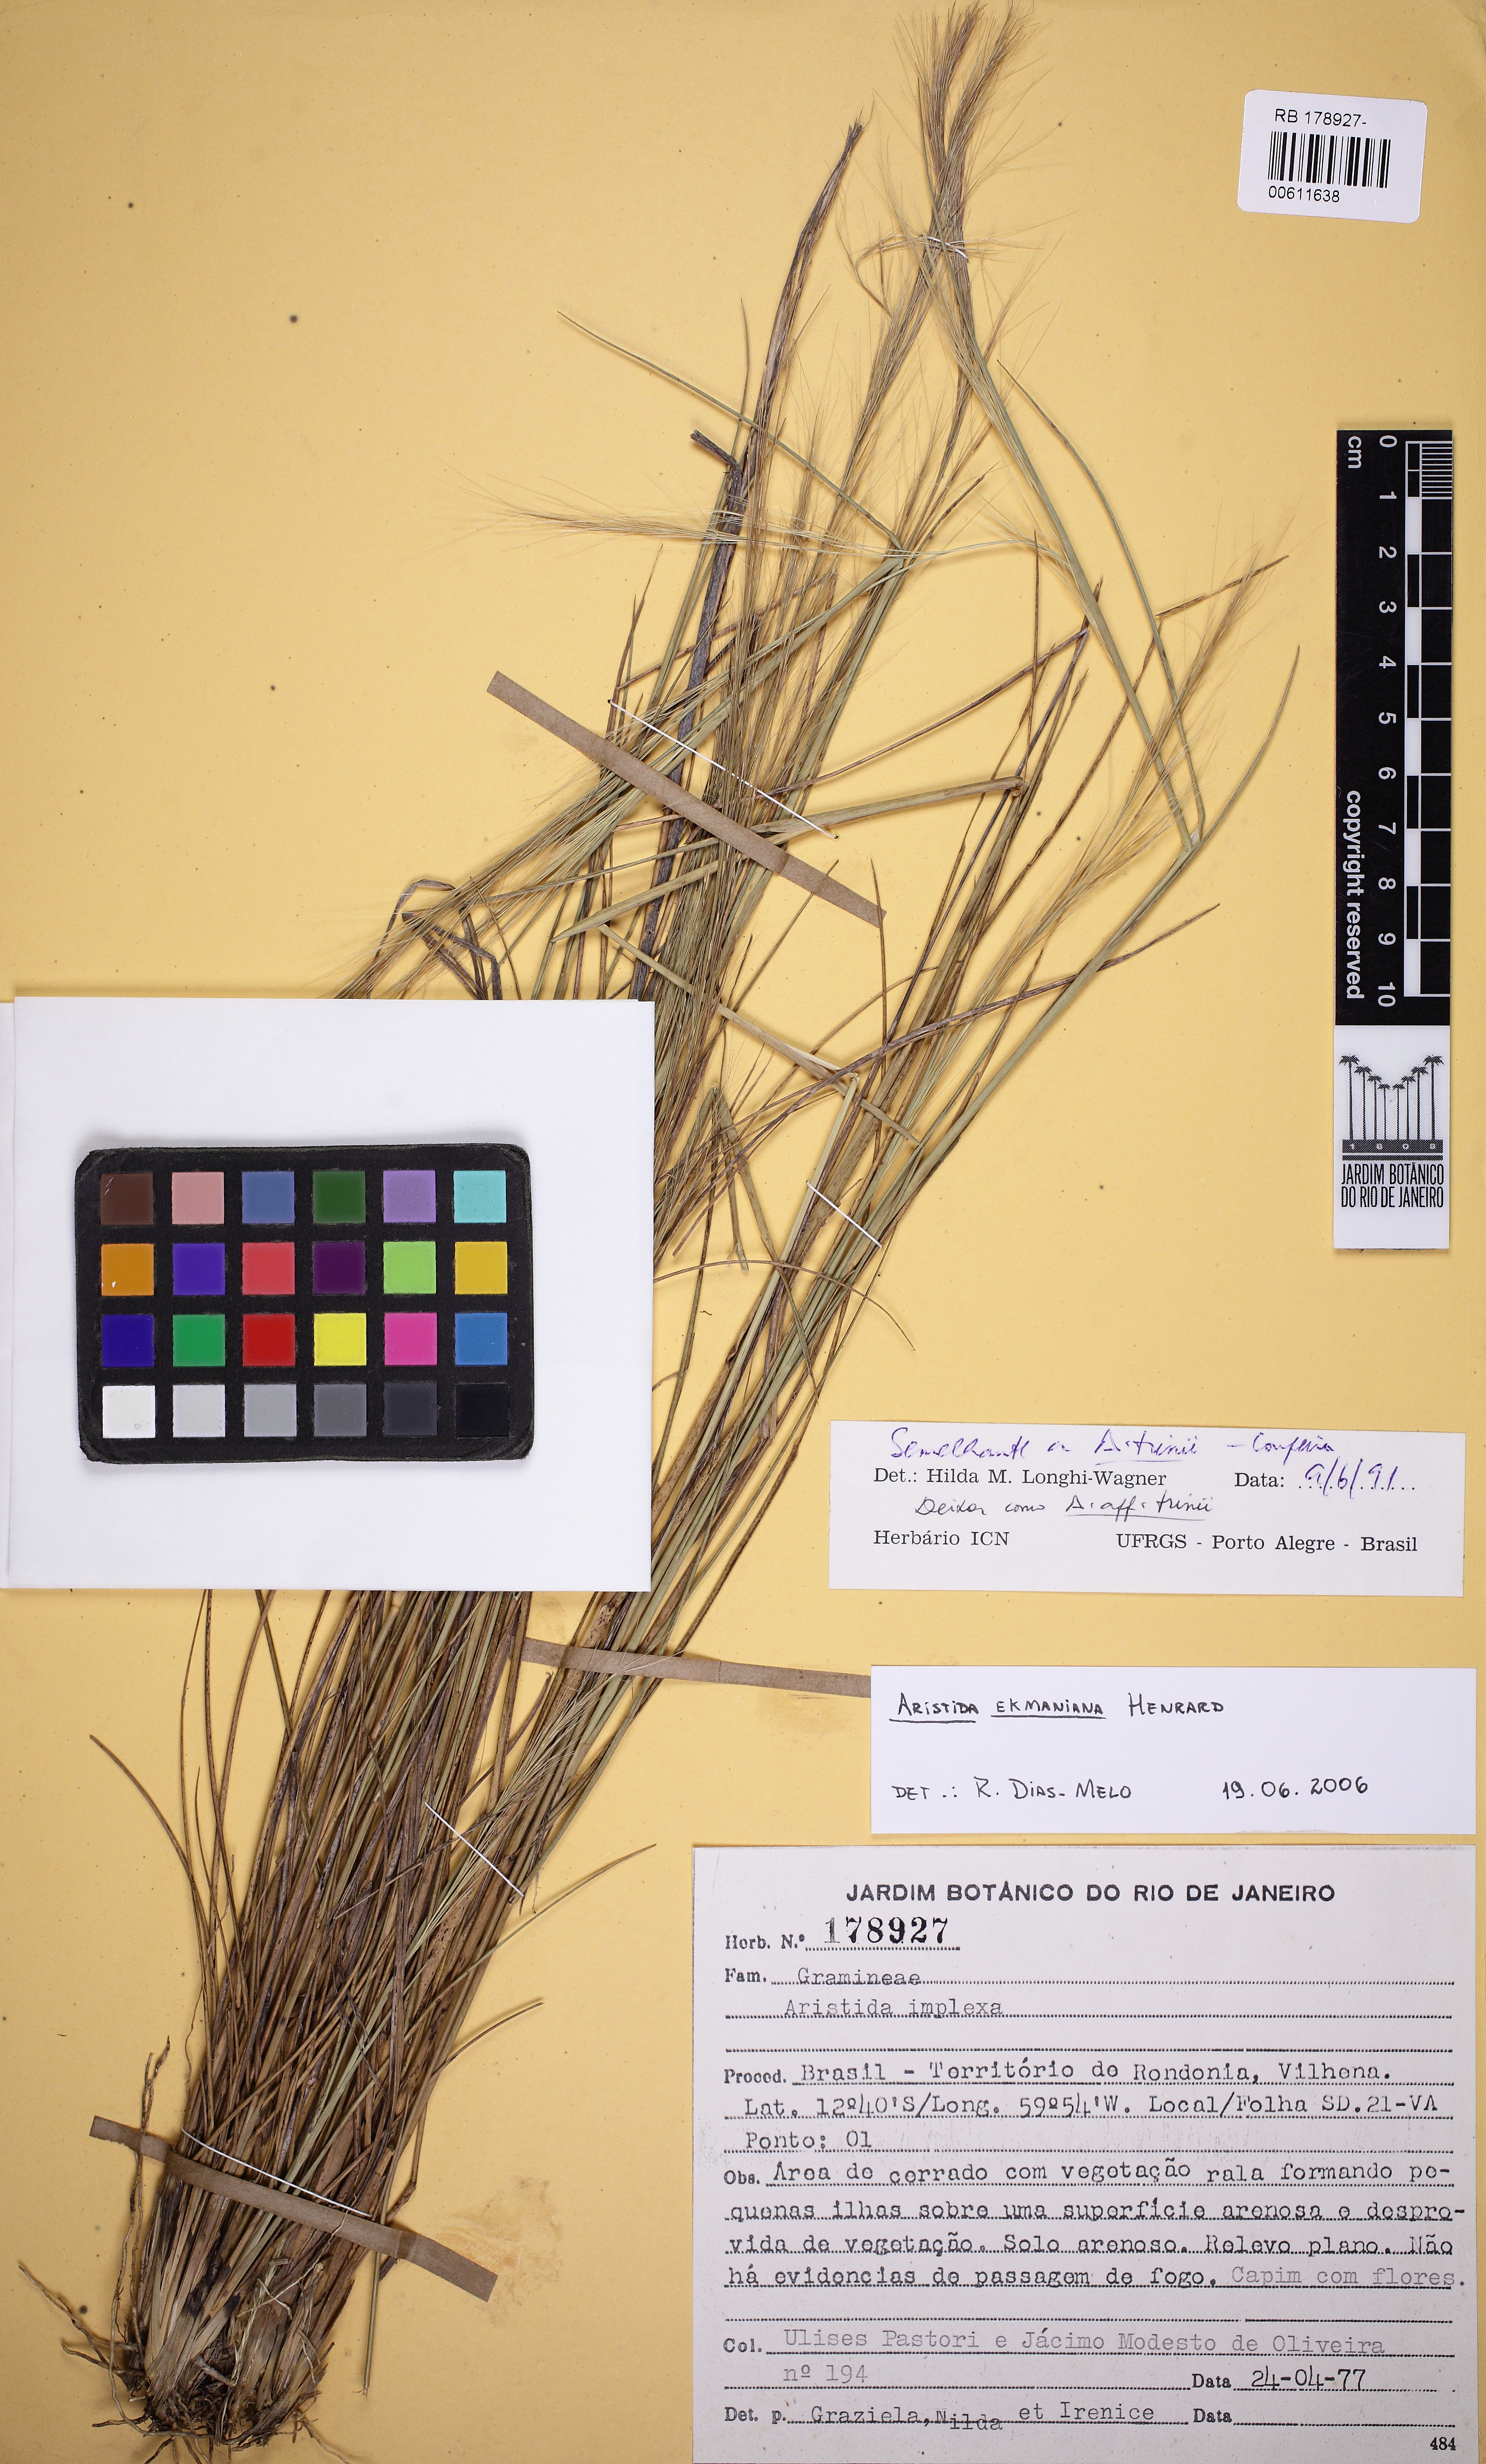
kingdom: Plantae
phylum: Tracheophyta
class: Liliopsida
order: Poales
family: Poaceae
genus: Aristida
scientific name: Aristida ekmaniana
